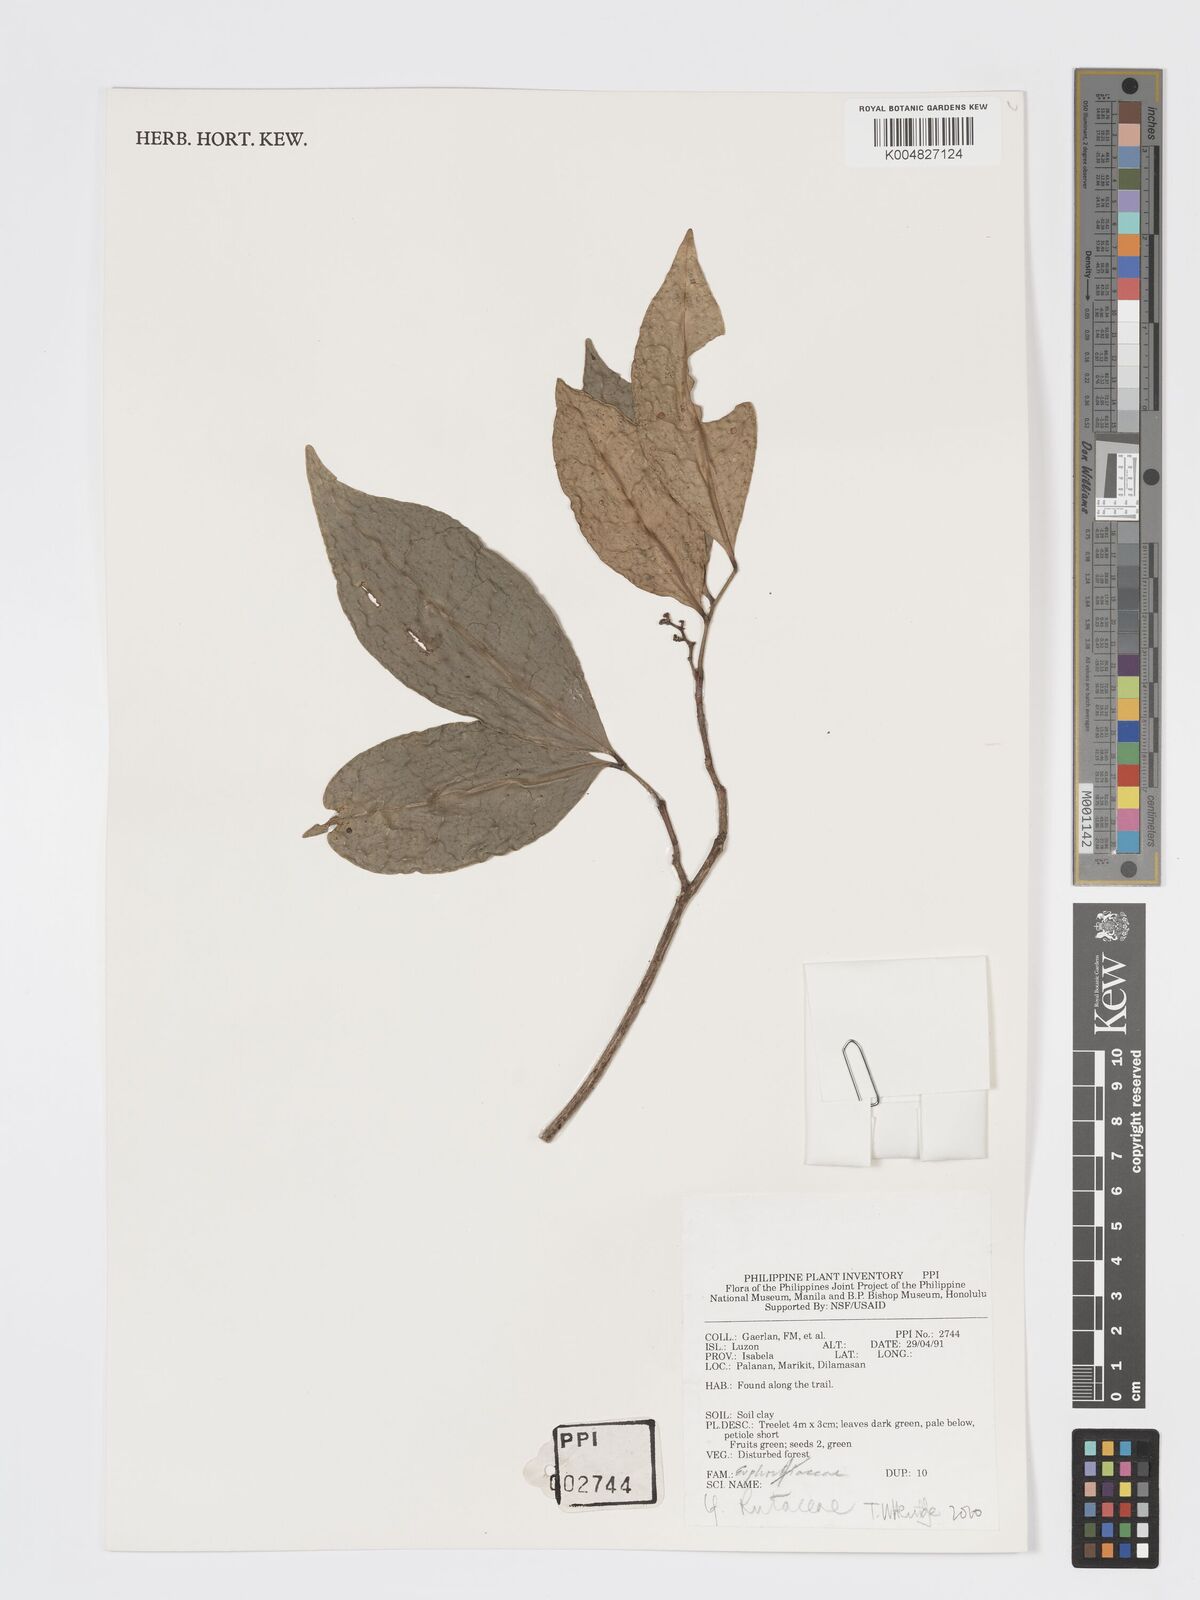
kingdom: Plantae
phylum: Tracheophyta
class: Magnoliopsida
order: Sapindales
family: Rutaceae
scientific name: Rutaceae
